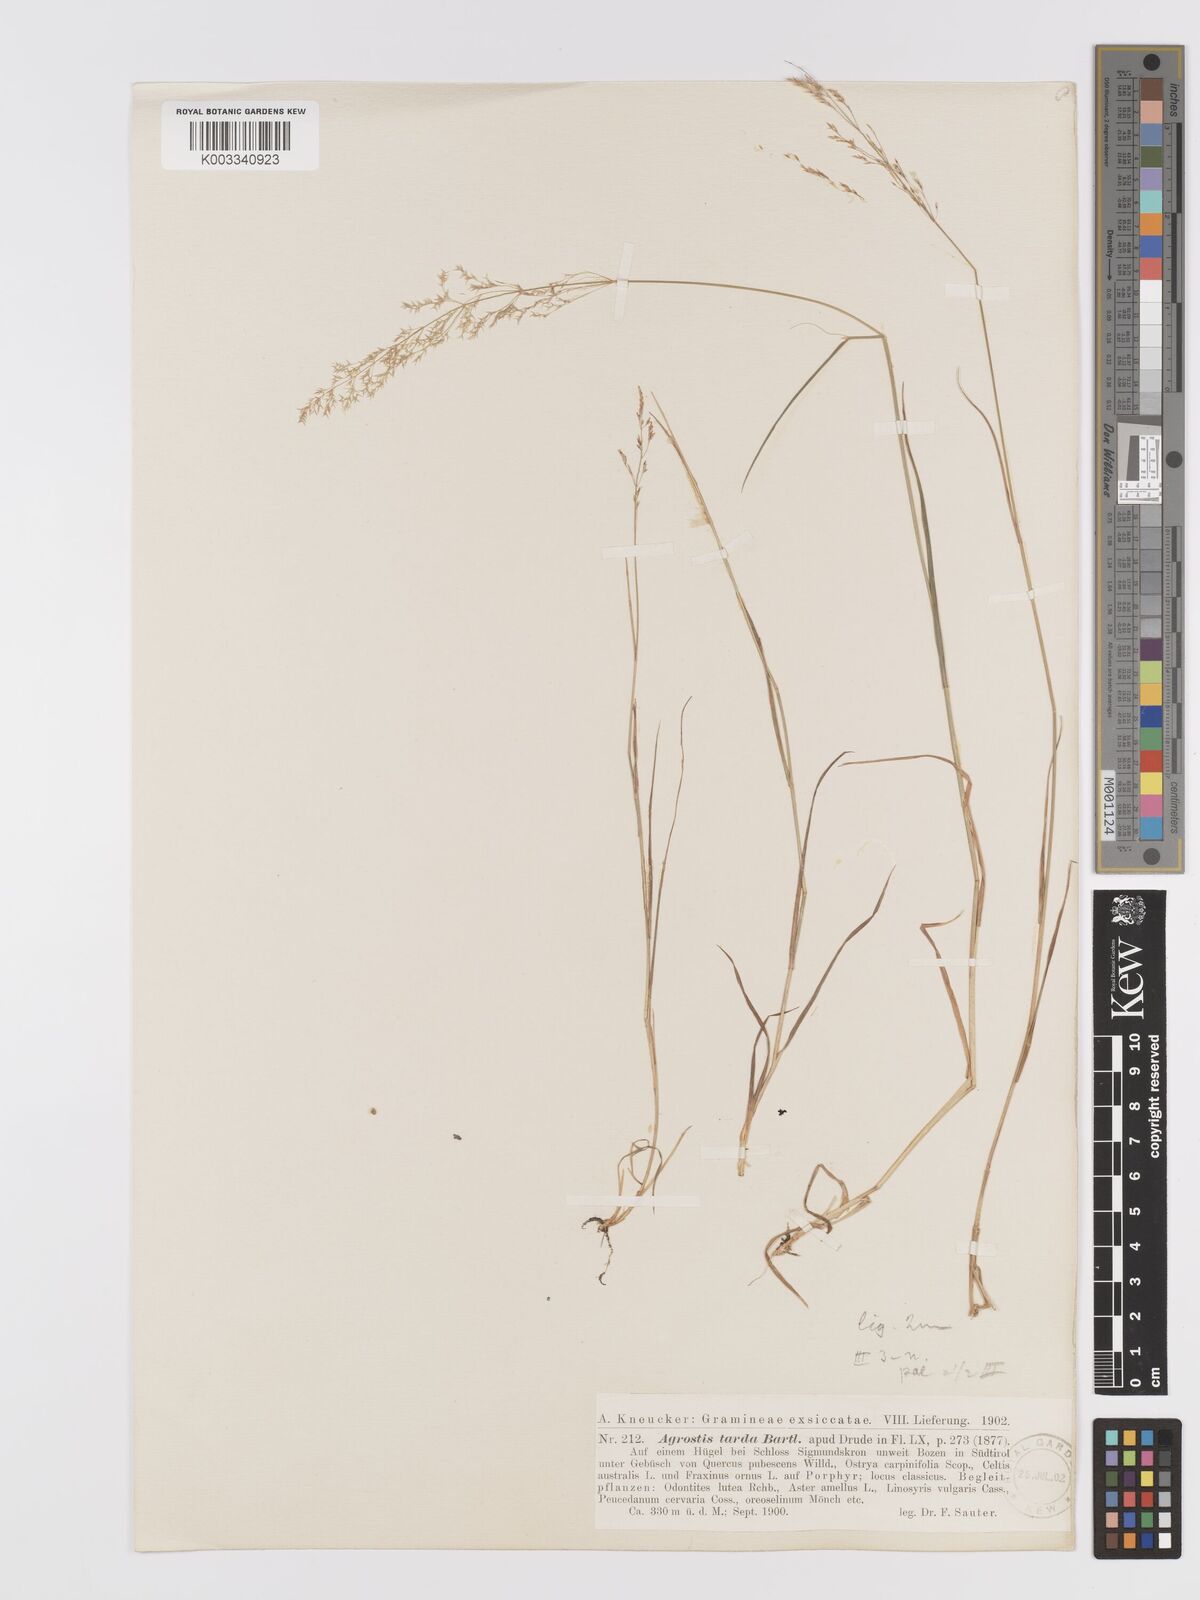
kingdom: Plantae
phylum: Tracheophyta
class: Liliopsida
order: Poales
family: Poaceae
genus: Agrostis
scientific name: Agrostis capillaris
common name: Colonial bentgrass
